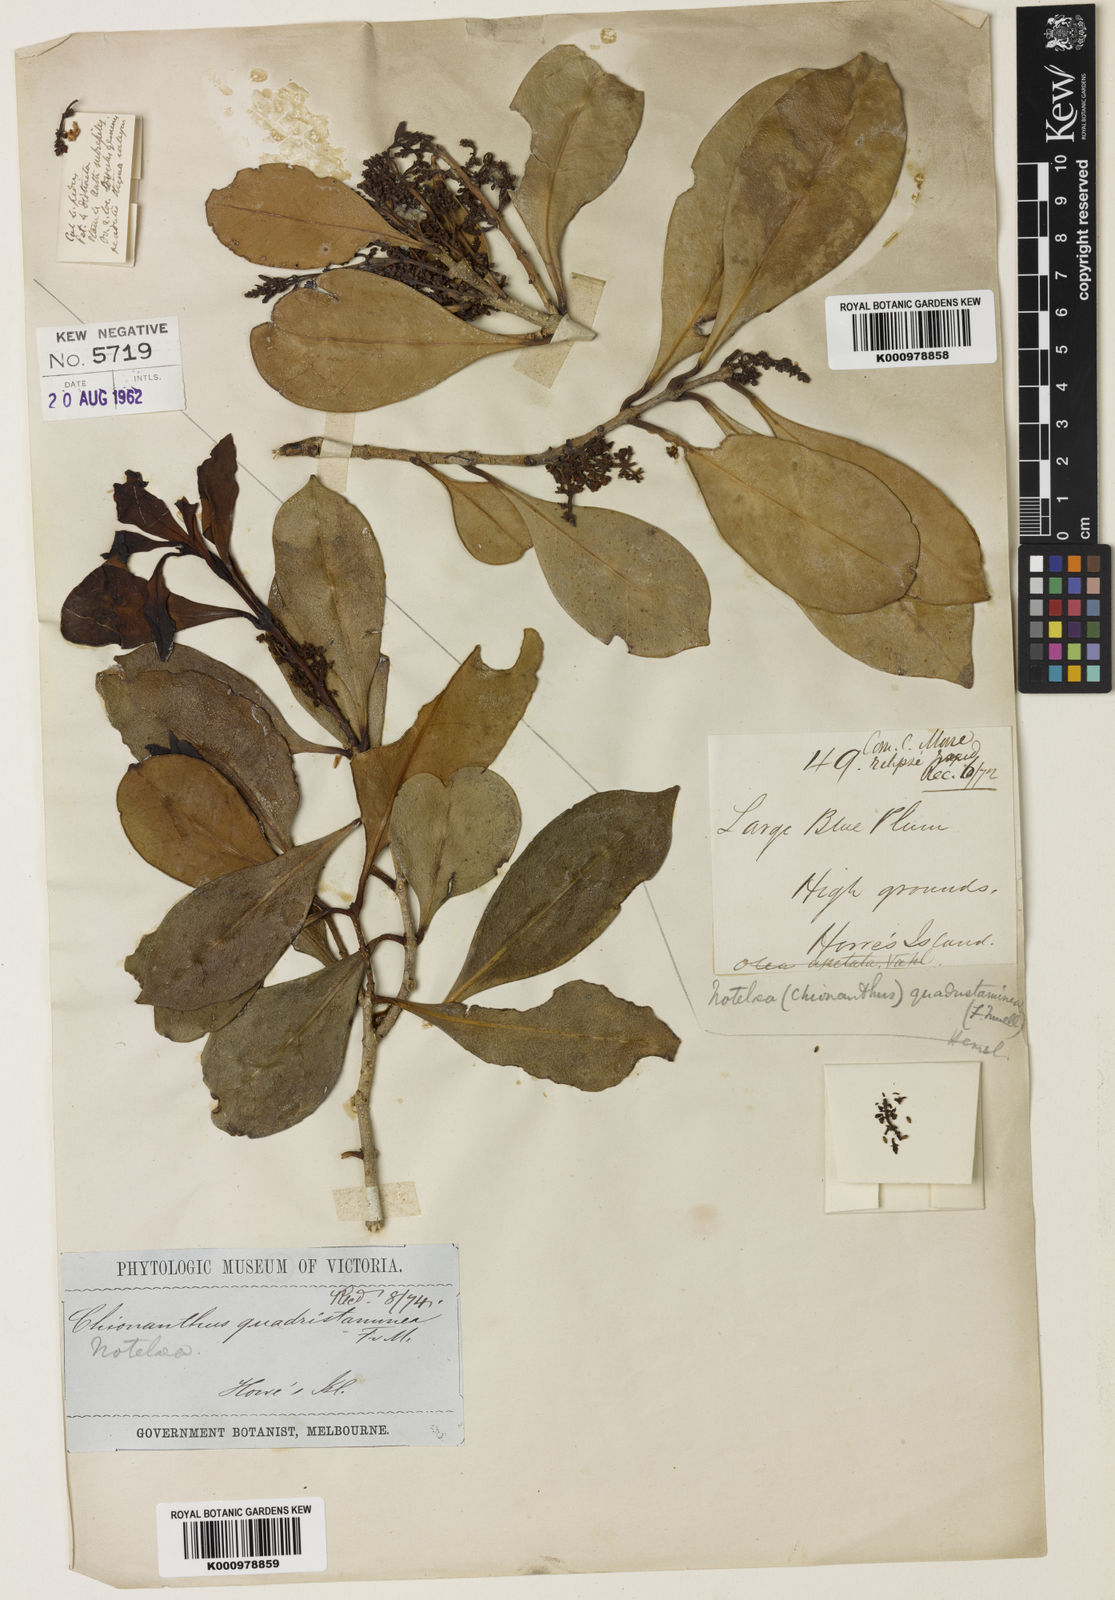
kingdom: Plantae
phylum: Tracheophyta
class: Magnoliopsida
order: Lamiales
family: Oleaceae
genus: Chionanthus
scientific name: Chionanthus quadristamineus
